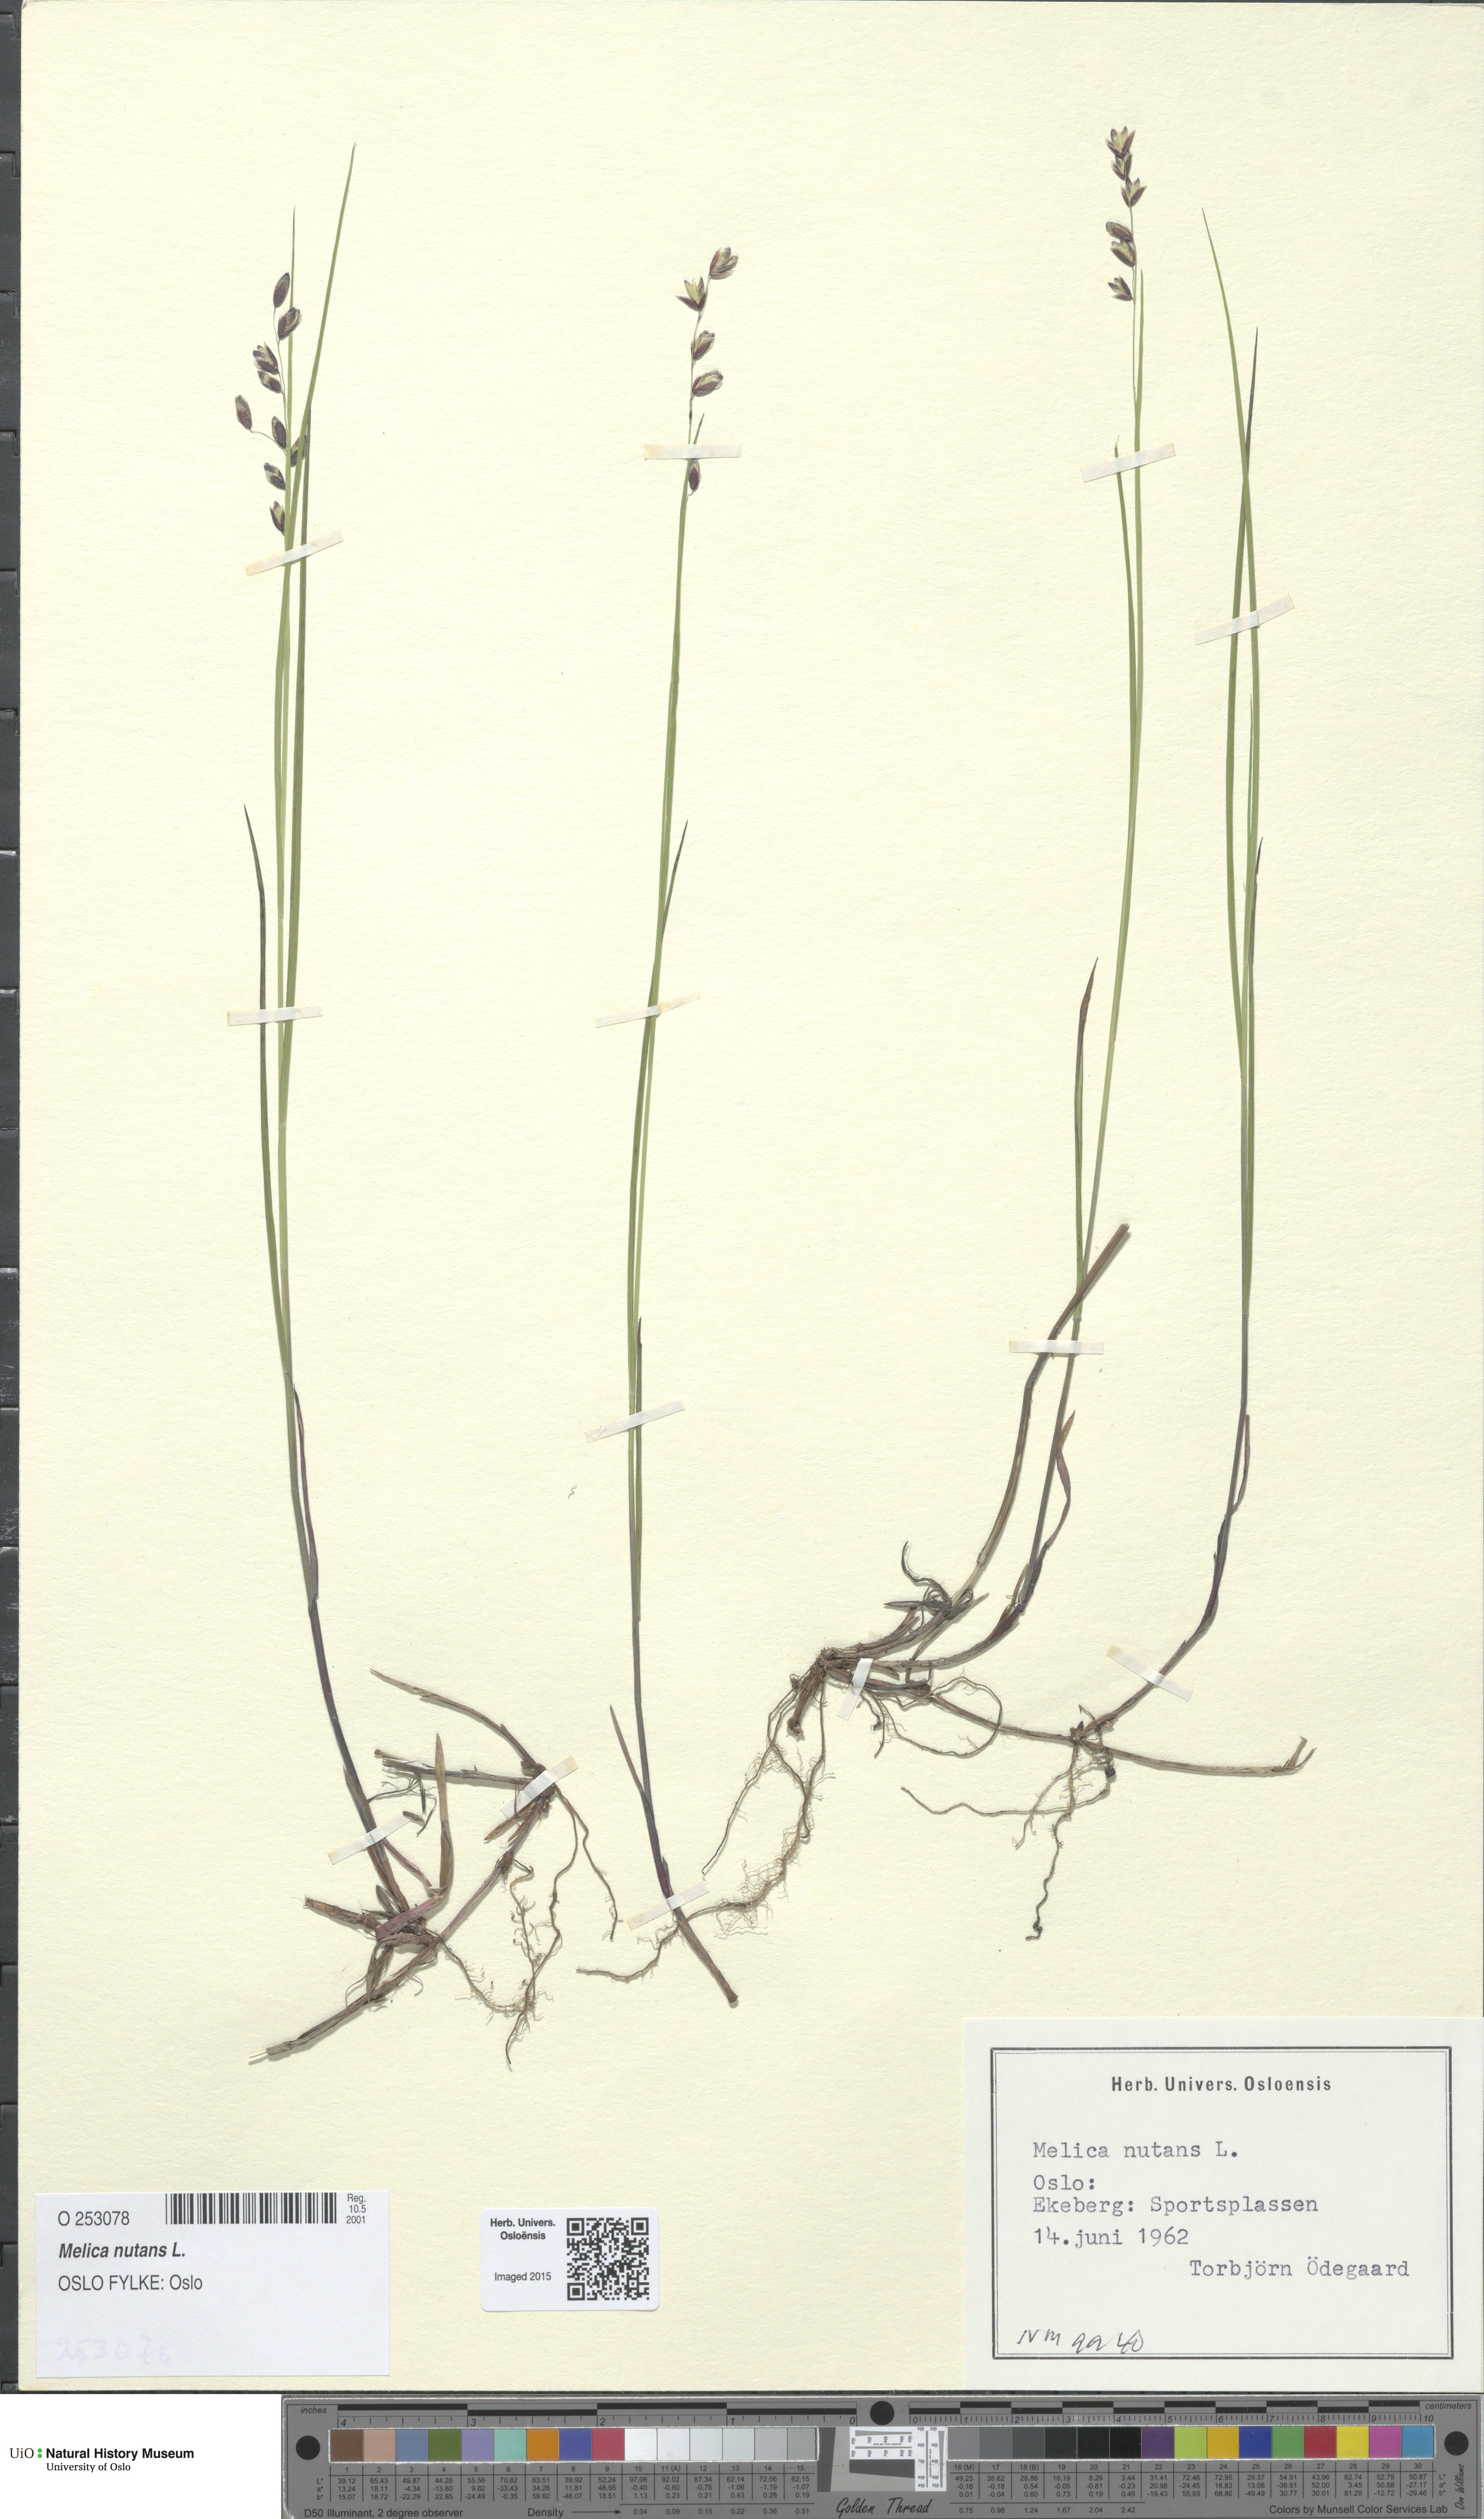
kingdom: Plantae
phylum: Tracheophyta
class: Liliopsida
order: Poales
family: Poaceae
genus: Melica
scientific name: Melica nutans
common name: Mountain melick
